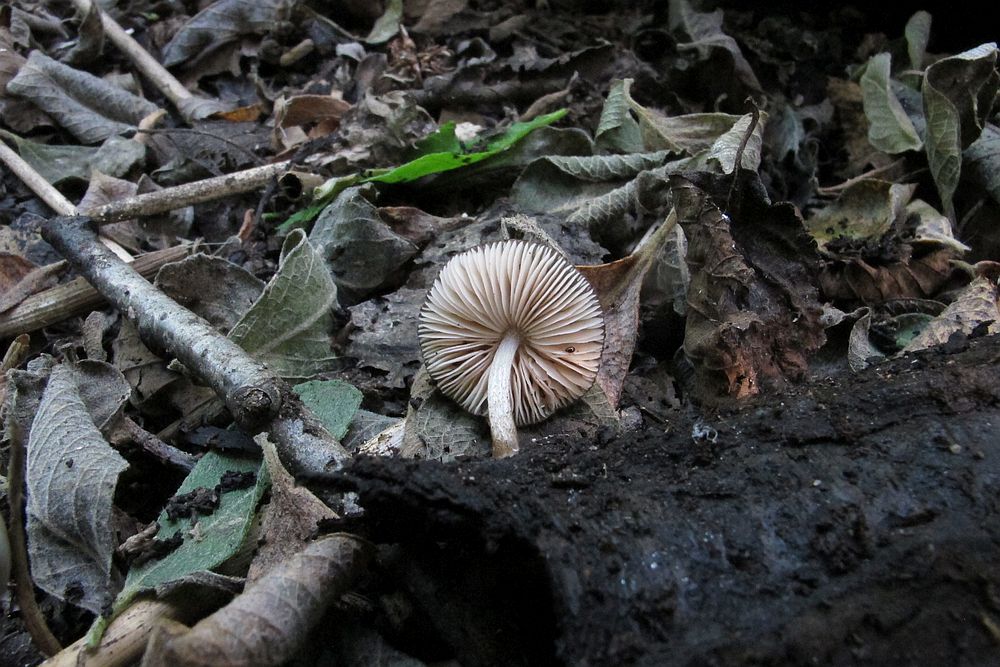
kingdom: Fungi
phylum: Basidiomycota
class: Agaricomycetes
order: Agaricales
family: Pluteaceae
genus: Pluteus
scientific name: Pluteus podospileus
